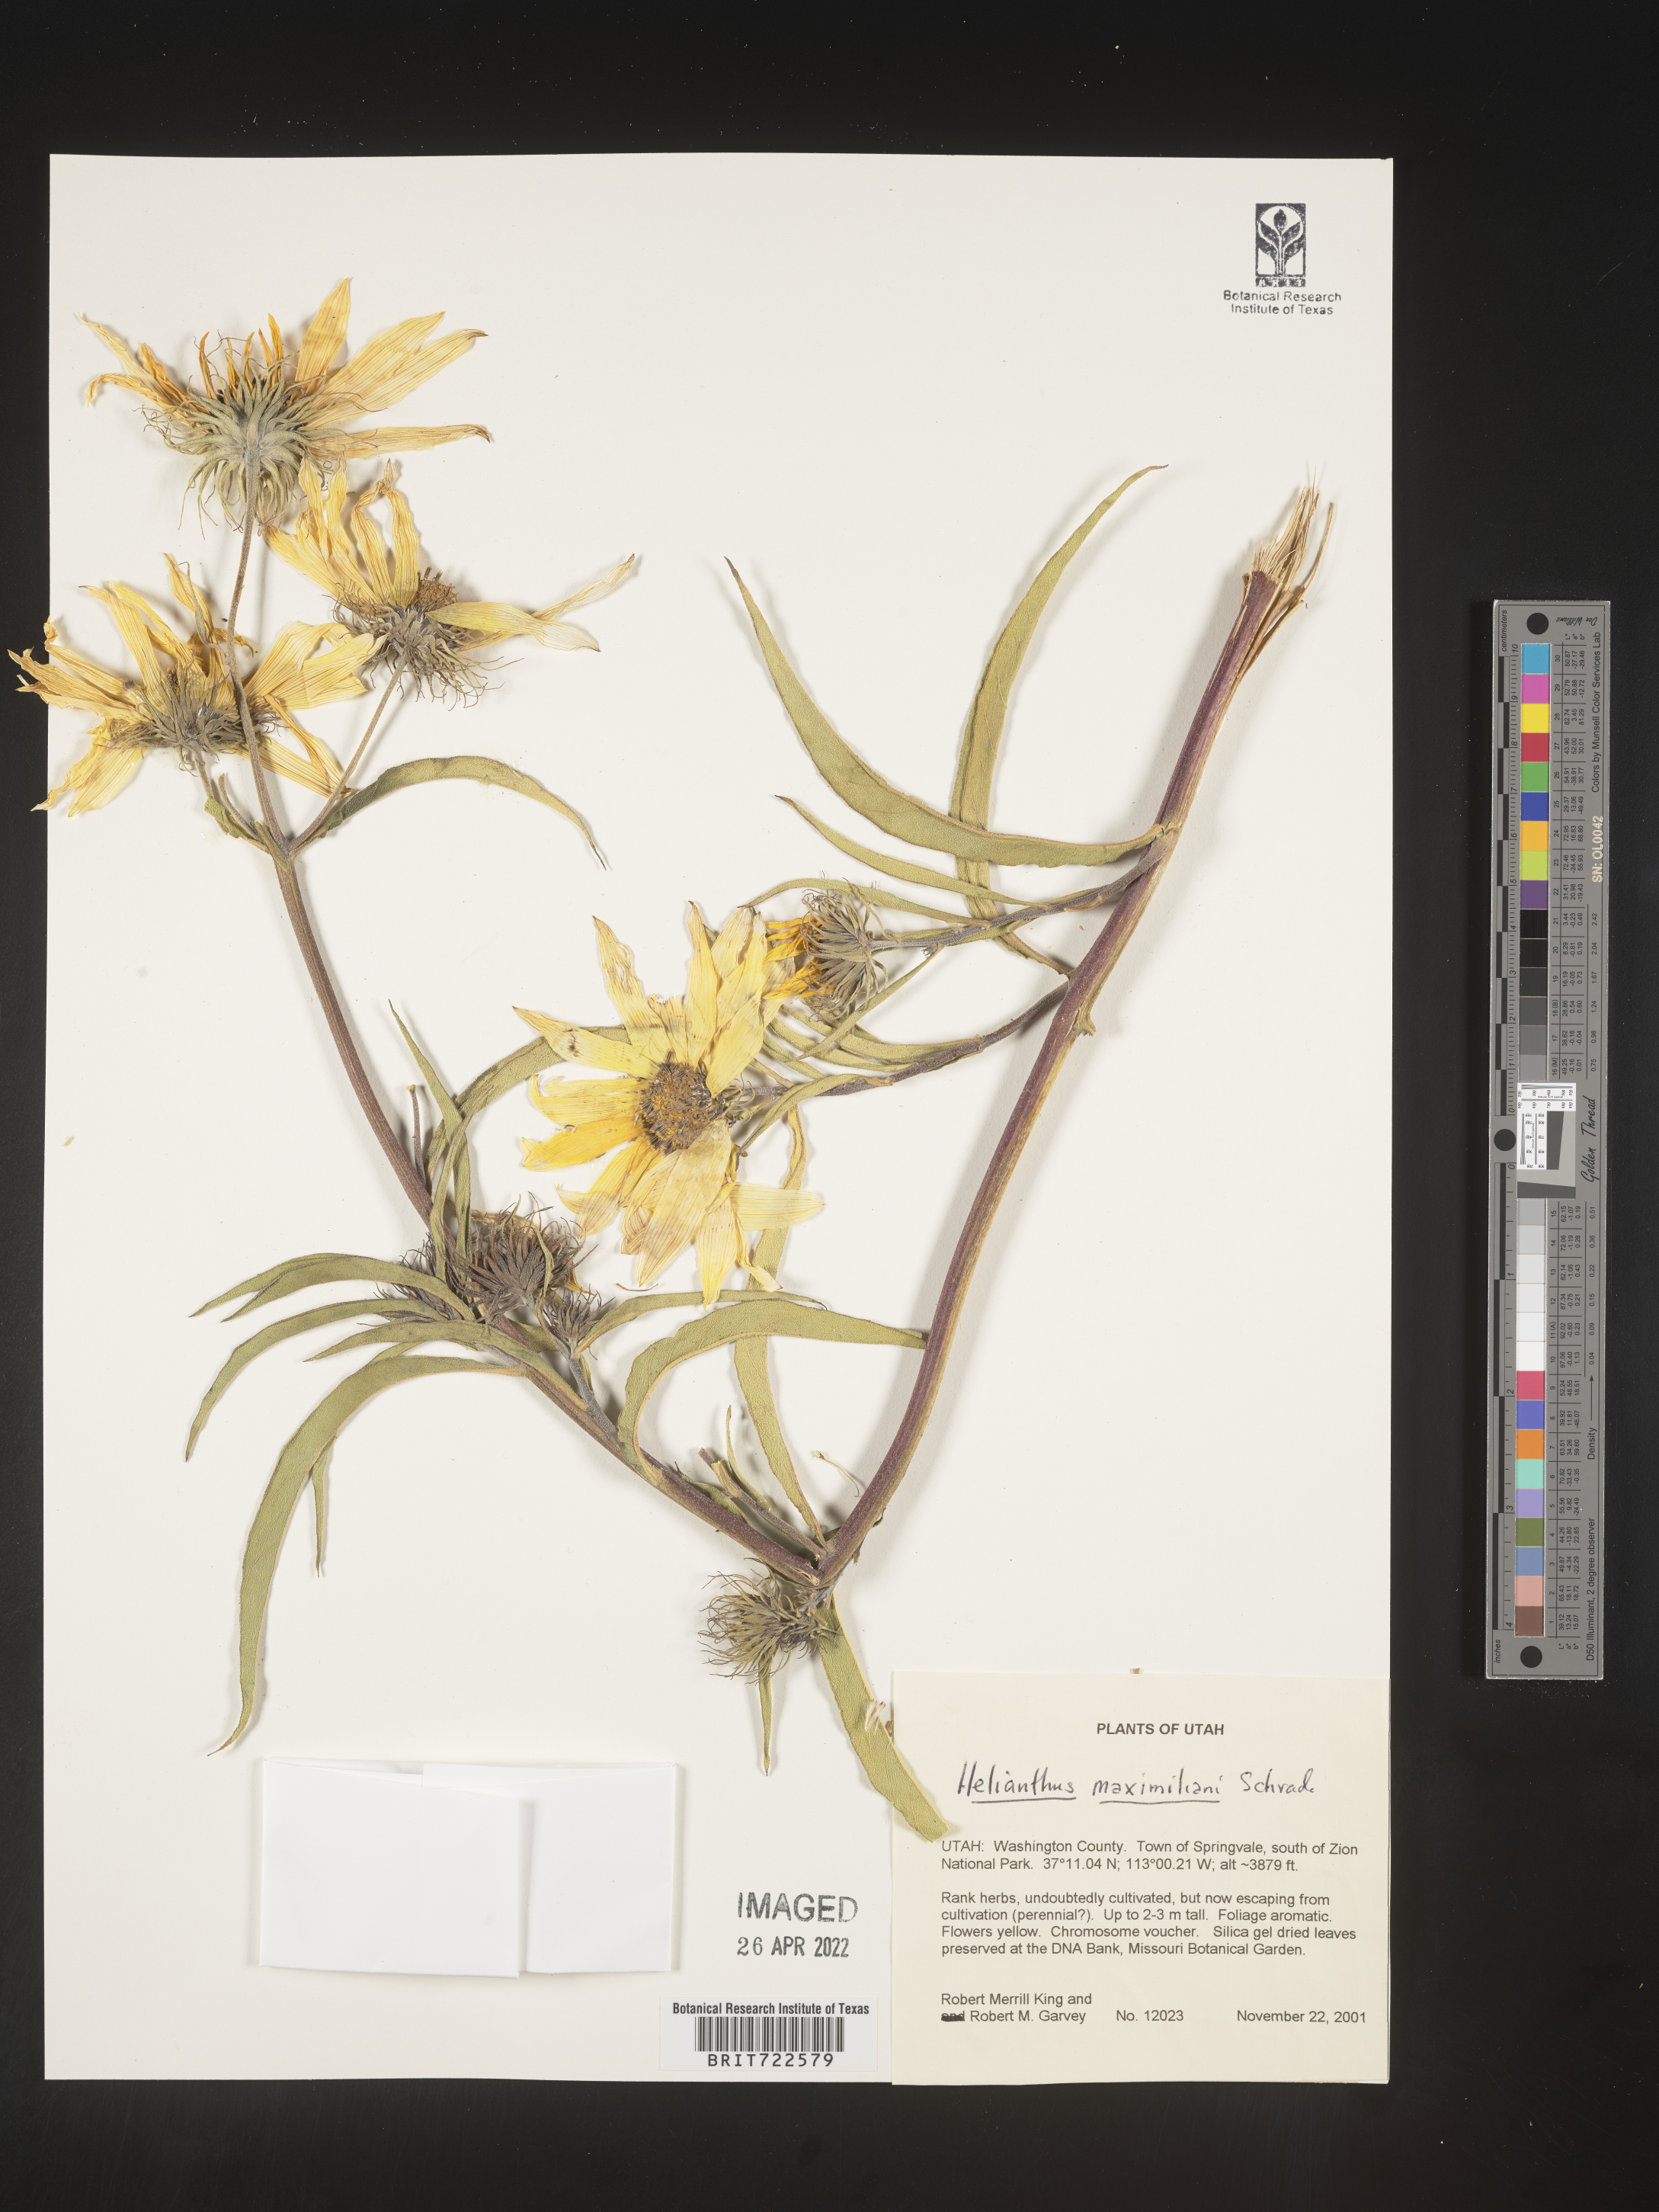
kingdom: Plantae
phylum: Tracheophyta
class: Magnoliopsida
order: Asterales
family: Asteraceae
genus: Helianthus
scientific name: Helianthus maximiliani
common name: Maximilian's sunflower
